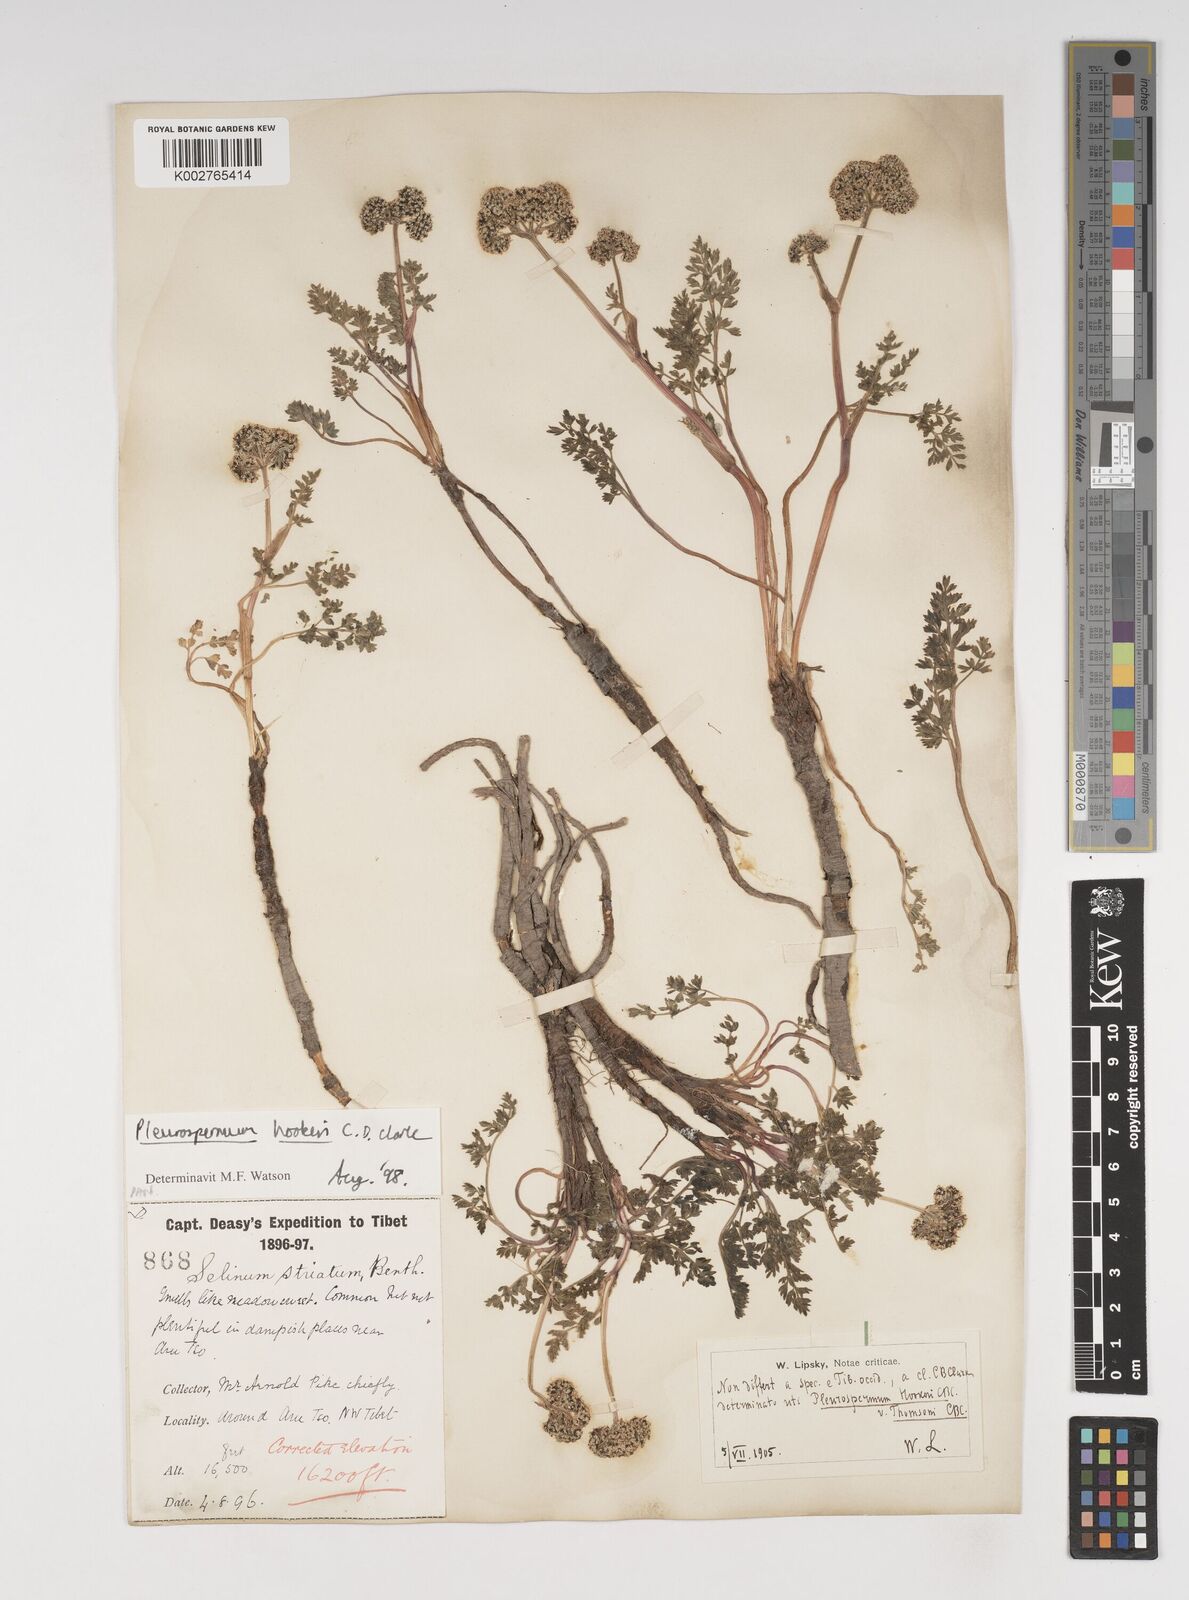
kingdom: Plantae
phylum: Tracheophyta
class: Magnoliopsida
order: Apiales
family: Apiaceae
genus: Pleurospermum
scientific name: Pleurospermum hookeri
